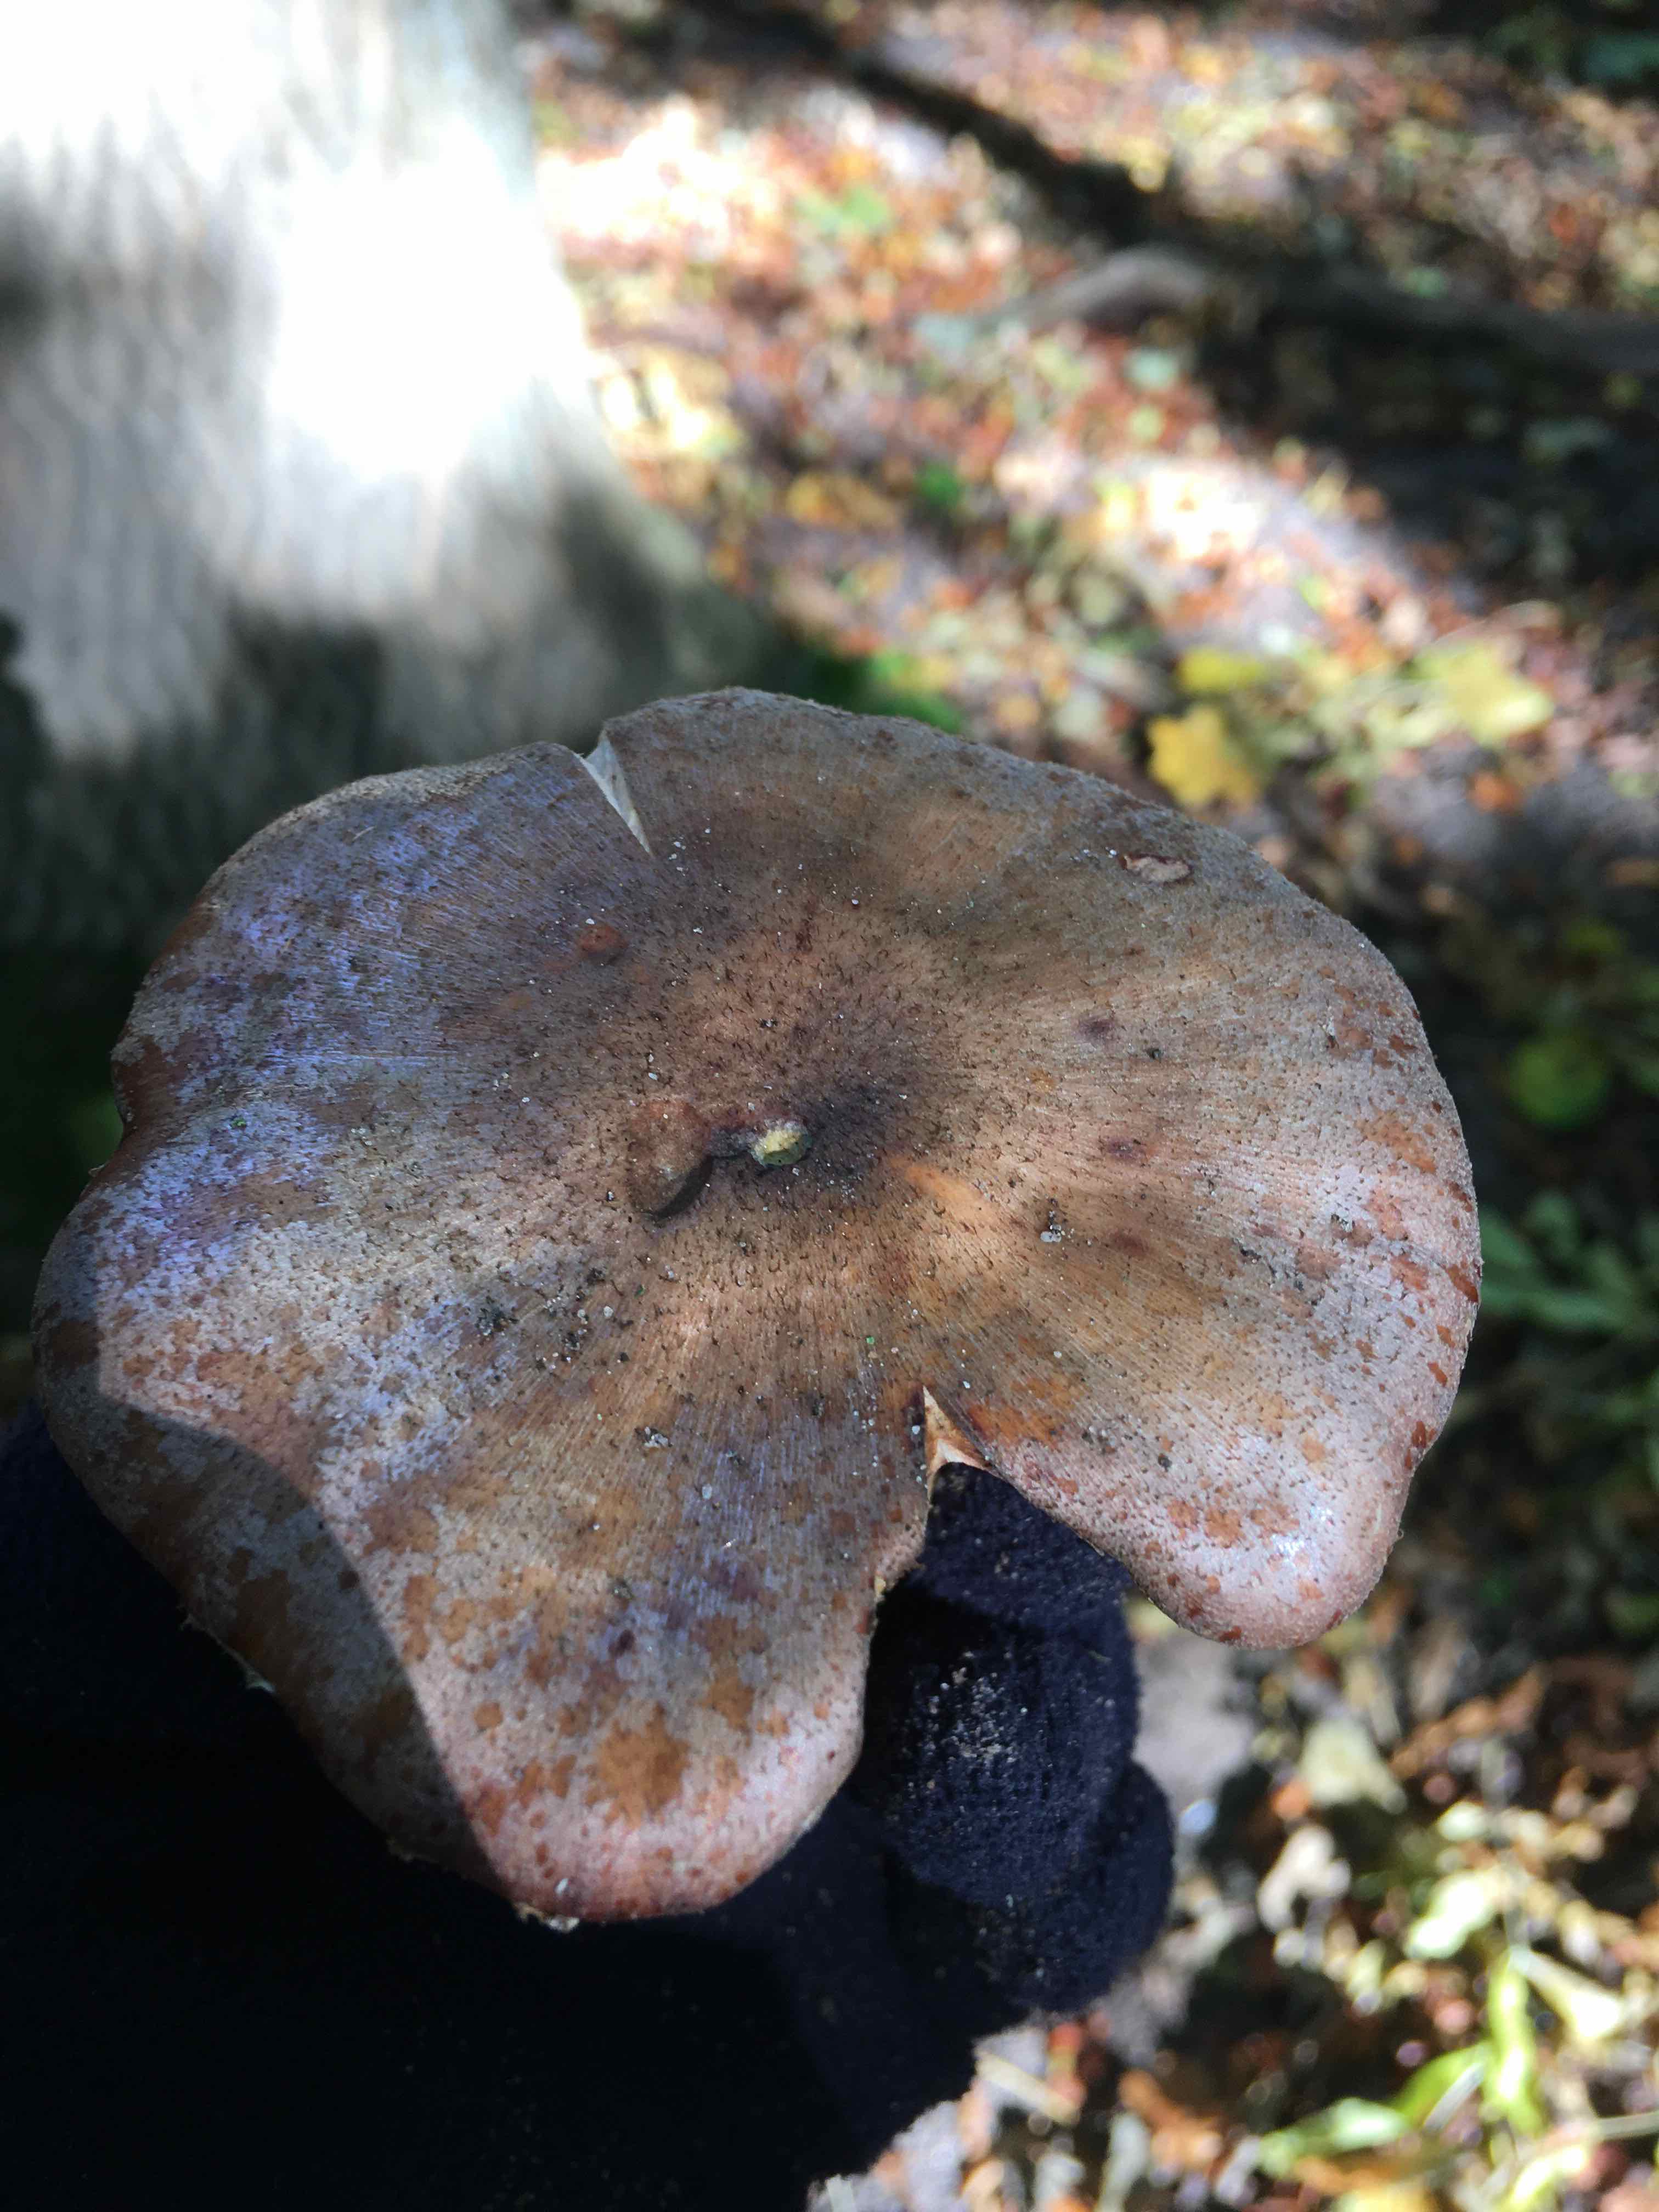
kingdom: Fungi
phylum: Basidiomycota
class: Agaricomycetes
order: Agaricales
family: Physalacriaceae
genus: Armillaria
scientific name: Armillaria lutea
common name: køllestokket honningsvamp
